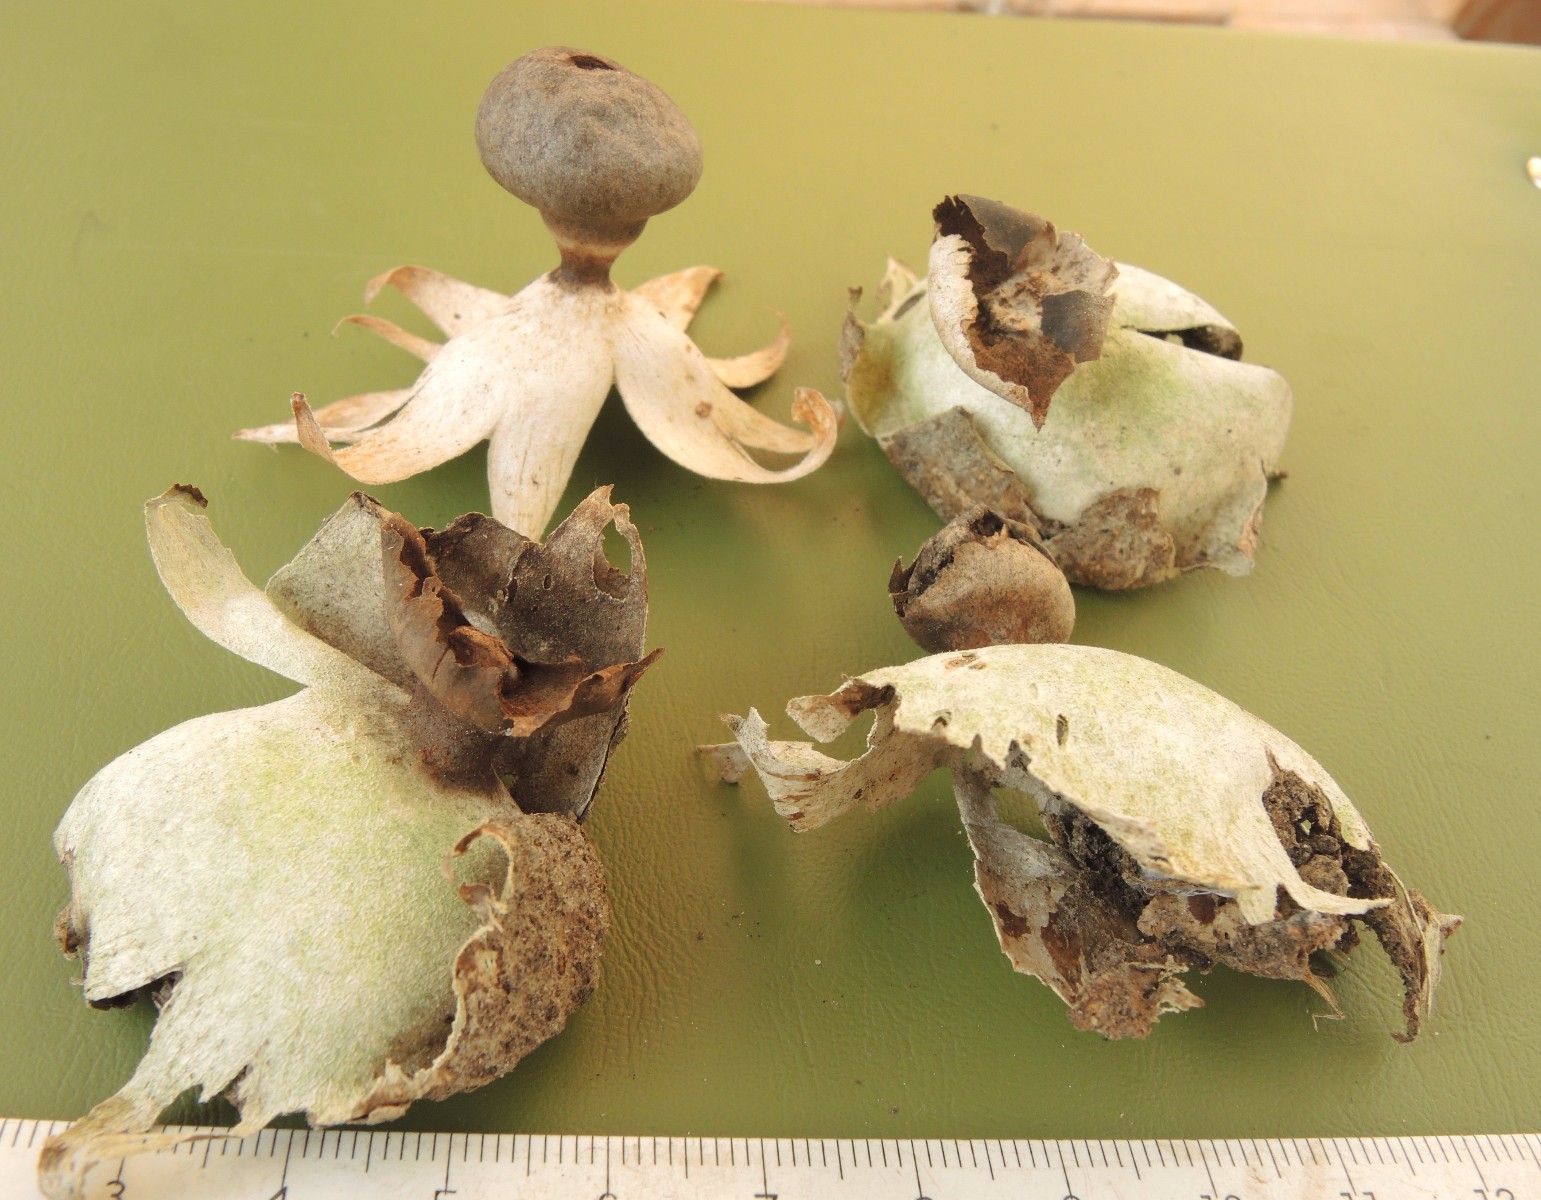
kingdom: Fungi
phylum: Basidiomycota
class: Agaricomycetes
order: Geastrales
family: Geastraceae
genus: Geastrum
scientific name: Geastrum
